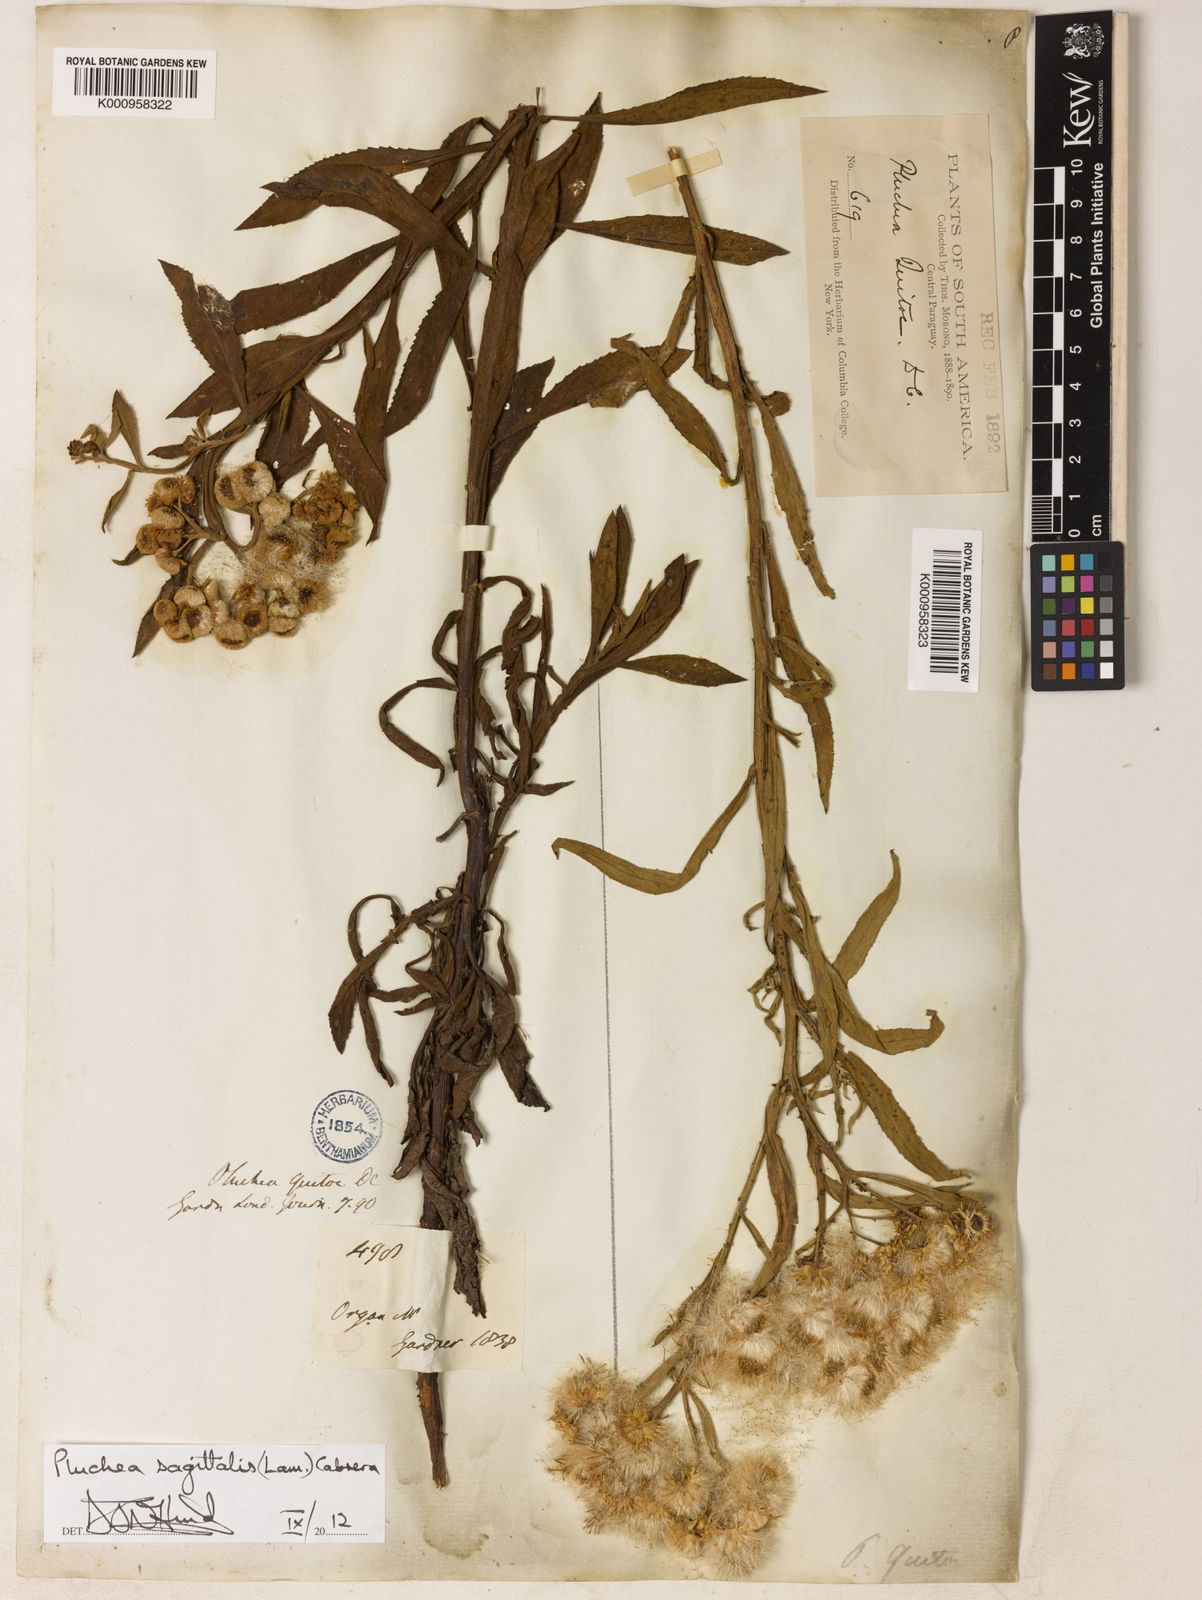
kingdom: Plantae
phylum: Tracheophyta
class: Magnoliopsida
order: Asterales
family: Asteraceae
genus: Pluchea
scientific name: Pluchea sagittalis
